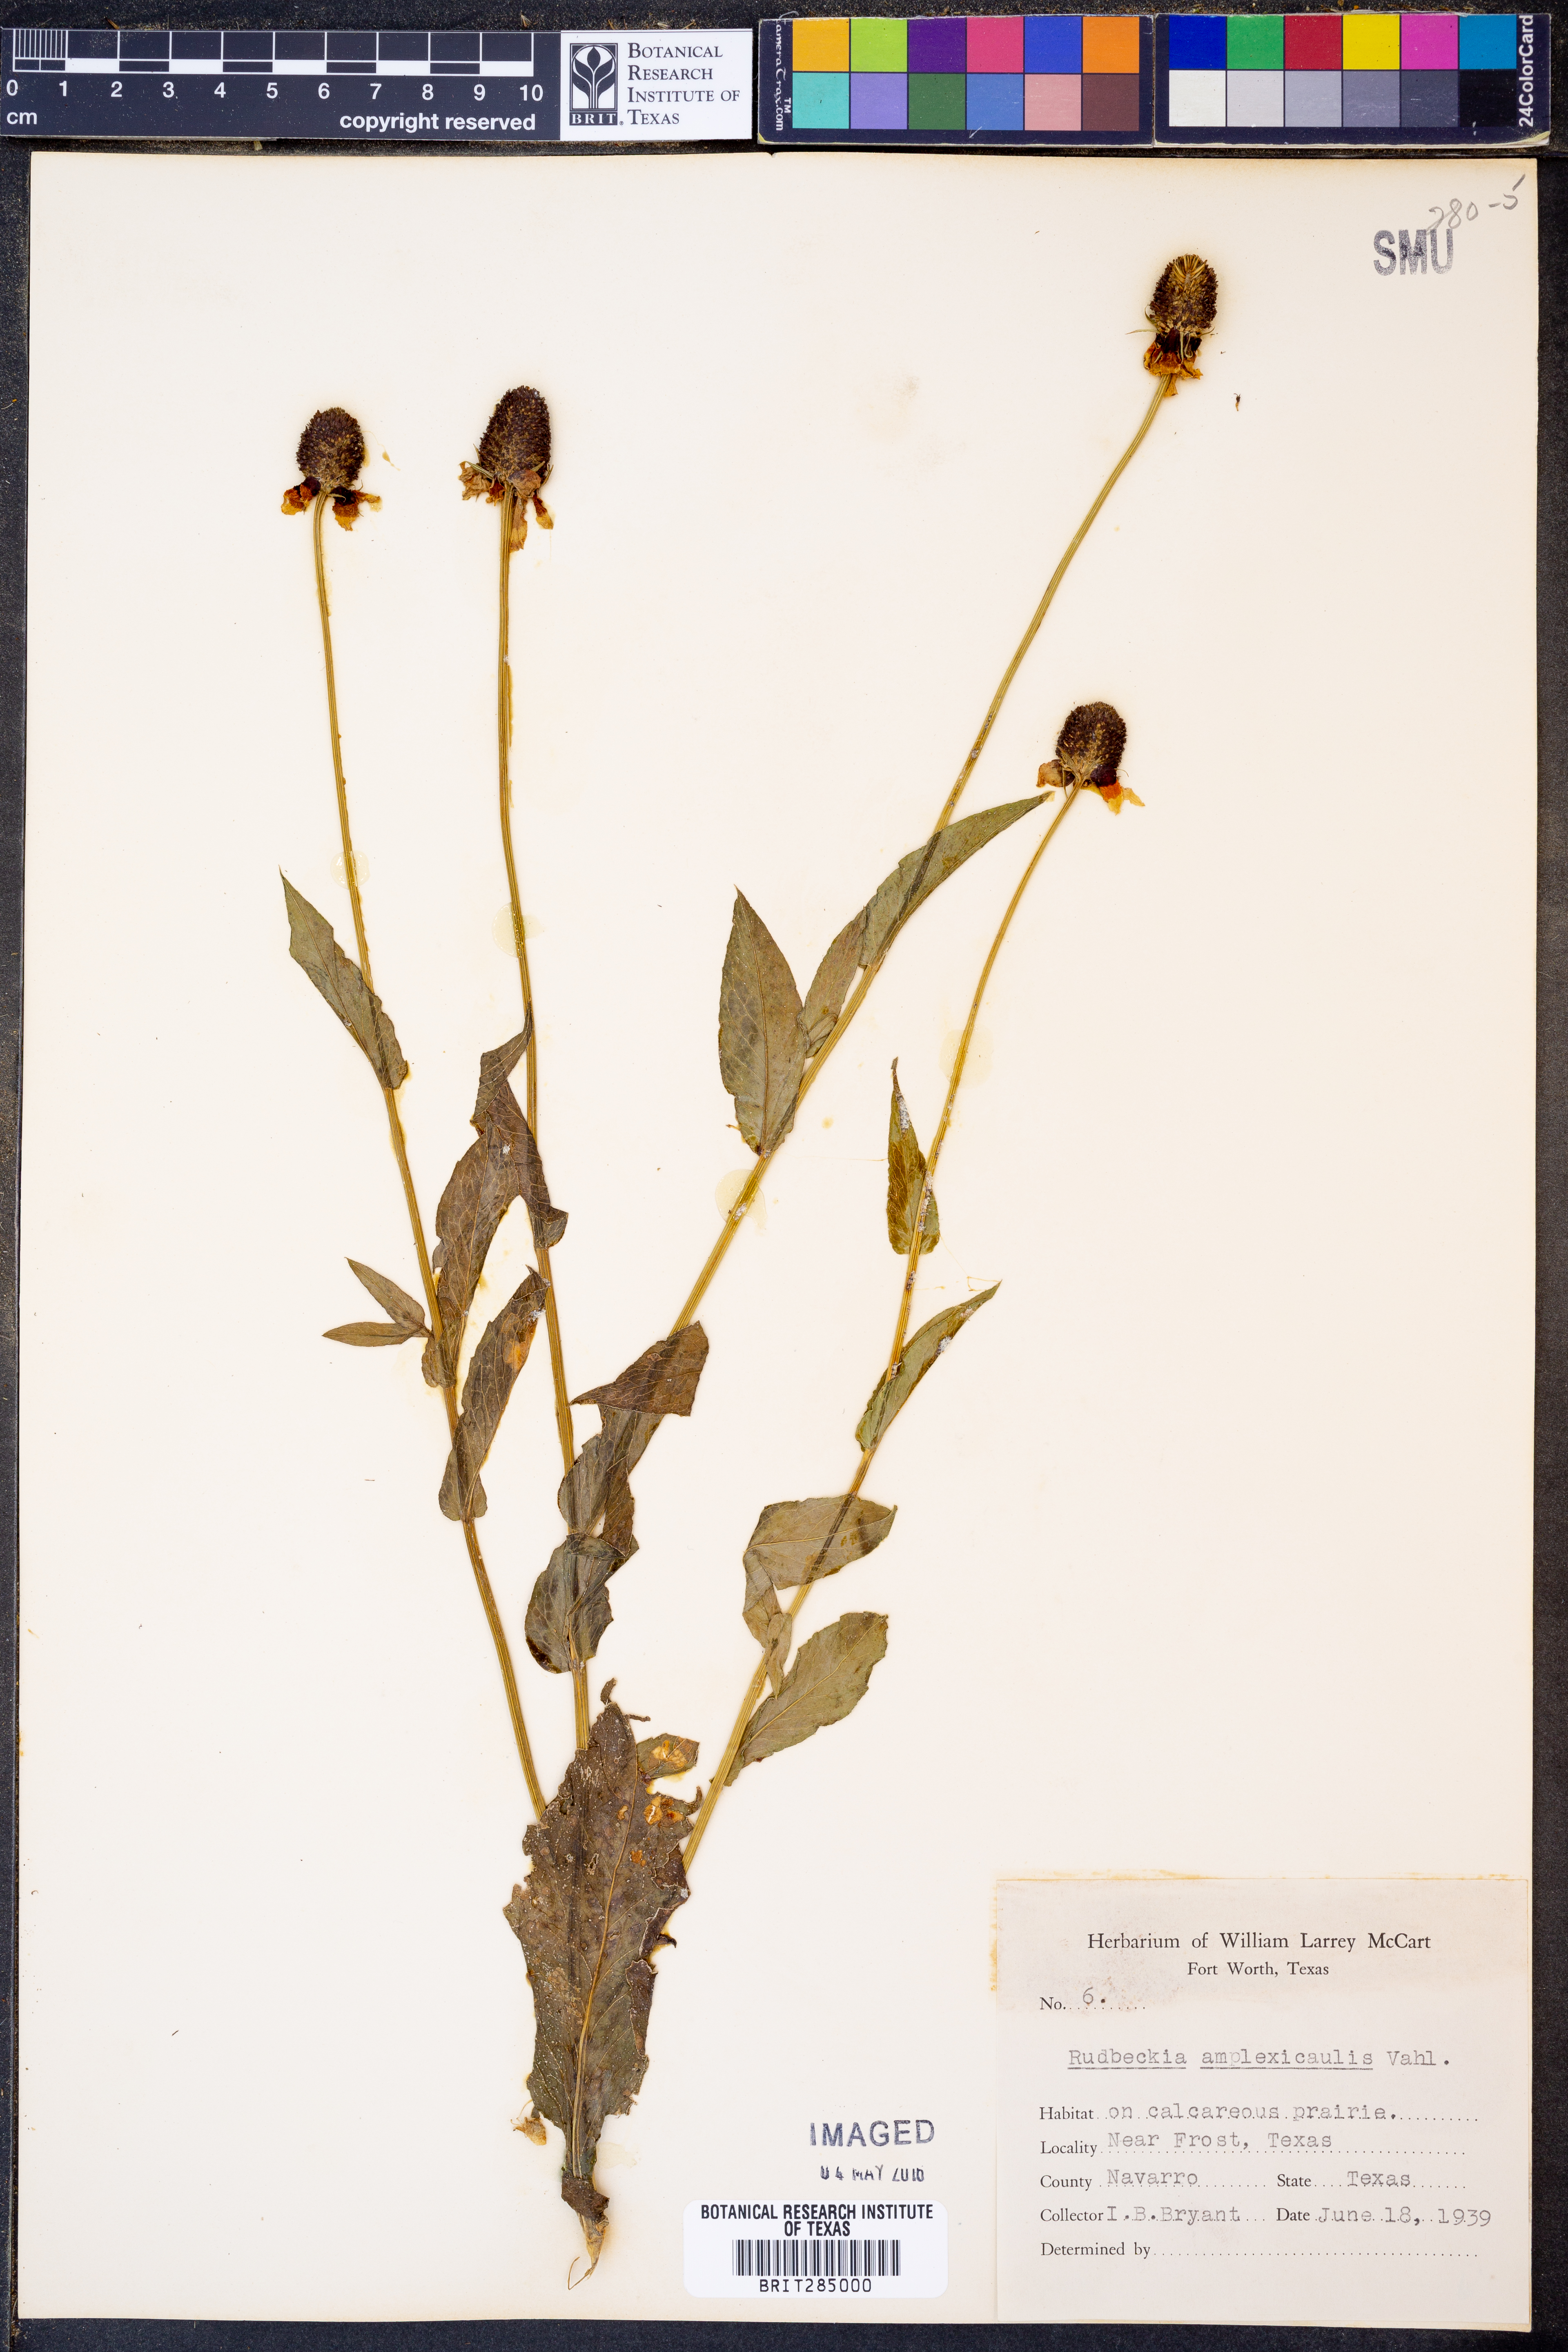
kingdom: Plantae
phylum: Tracheophyta
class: Magnoliopsida
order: Asterales
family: Asteraceae
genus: Rudbeckia
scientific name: Rudbeckia amplexicaulis
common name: Clasping-leaf coneflower
